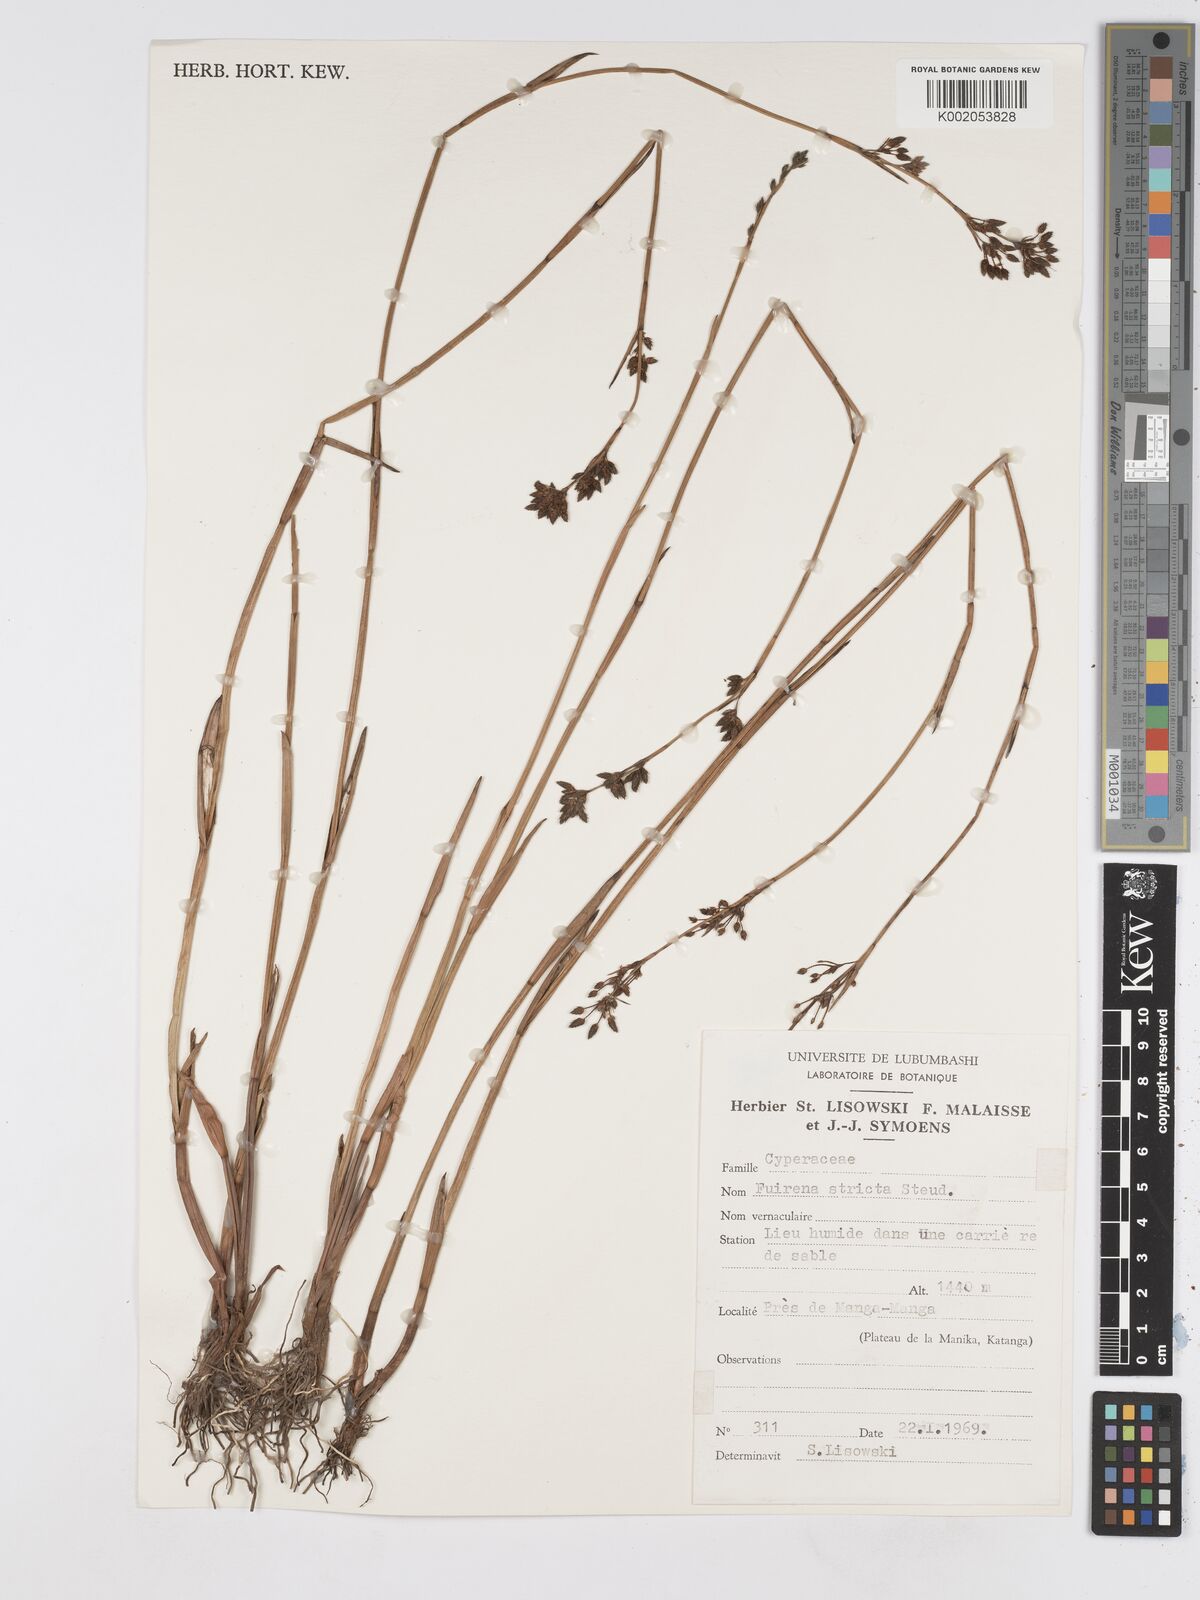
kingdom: Plantae
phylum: Tracheophyta
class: Liliopsida
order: Poales
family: Cyperaceae
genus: Fuirena
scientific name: Fuirena stricta
